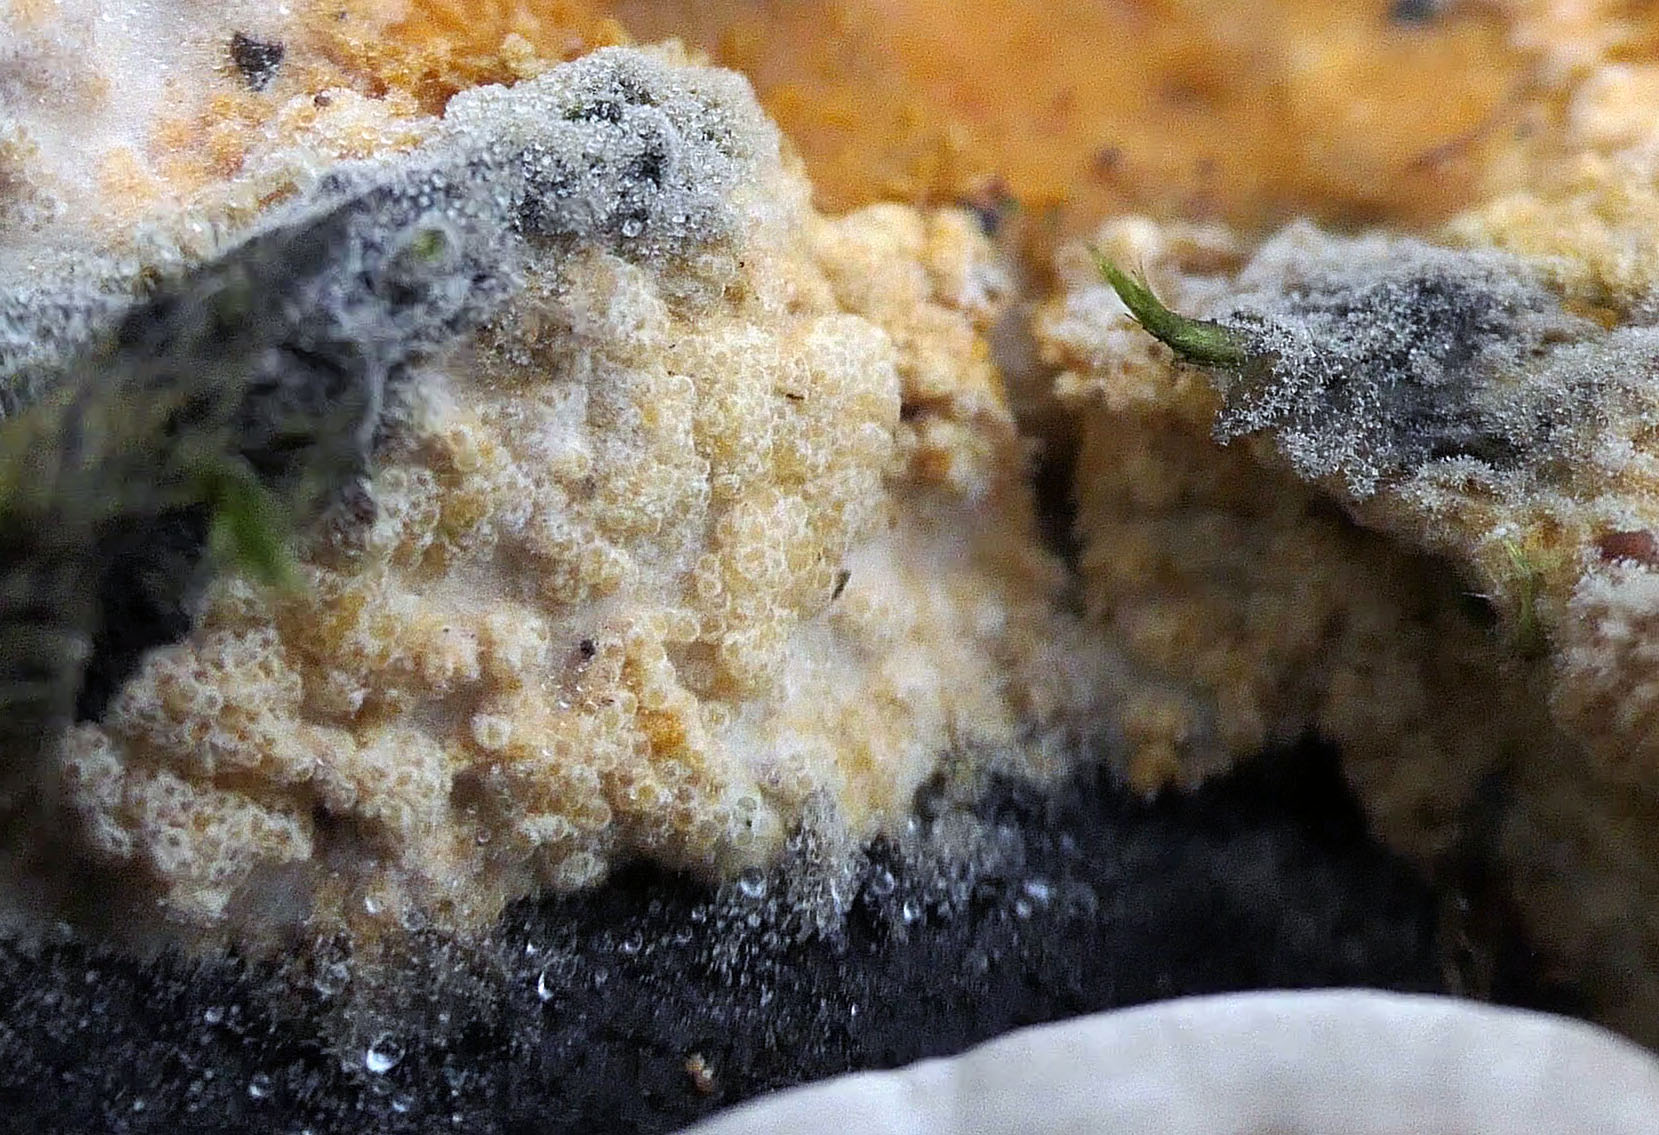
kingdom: Fungi
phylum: Ascomycota
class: Sordariomycetes
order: Hypocreales
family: Hypocreaceae
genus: Protocrea
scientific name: Protocrea pallida
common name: bleg kødkerne
